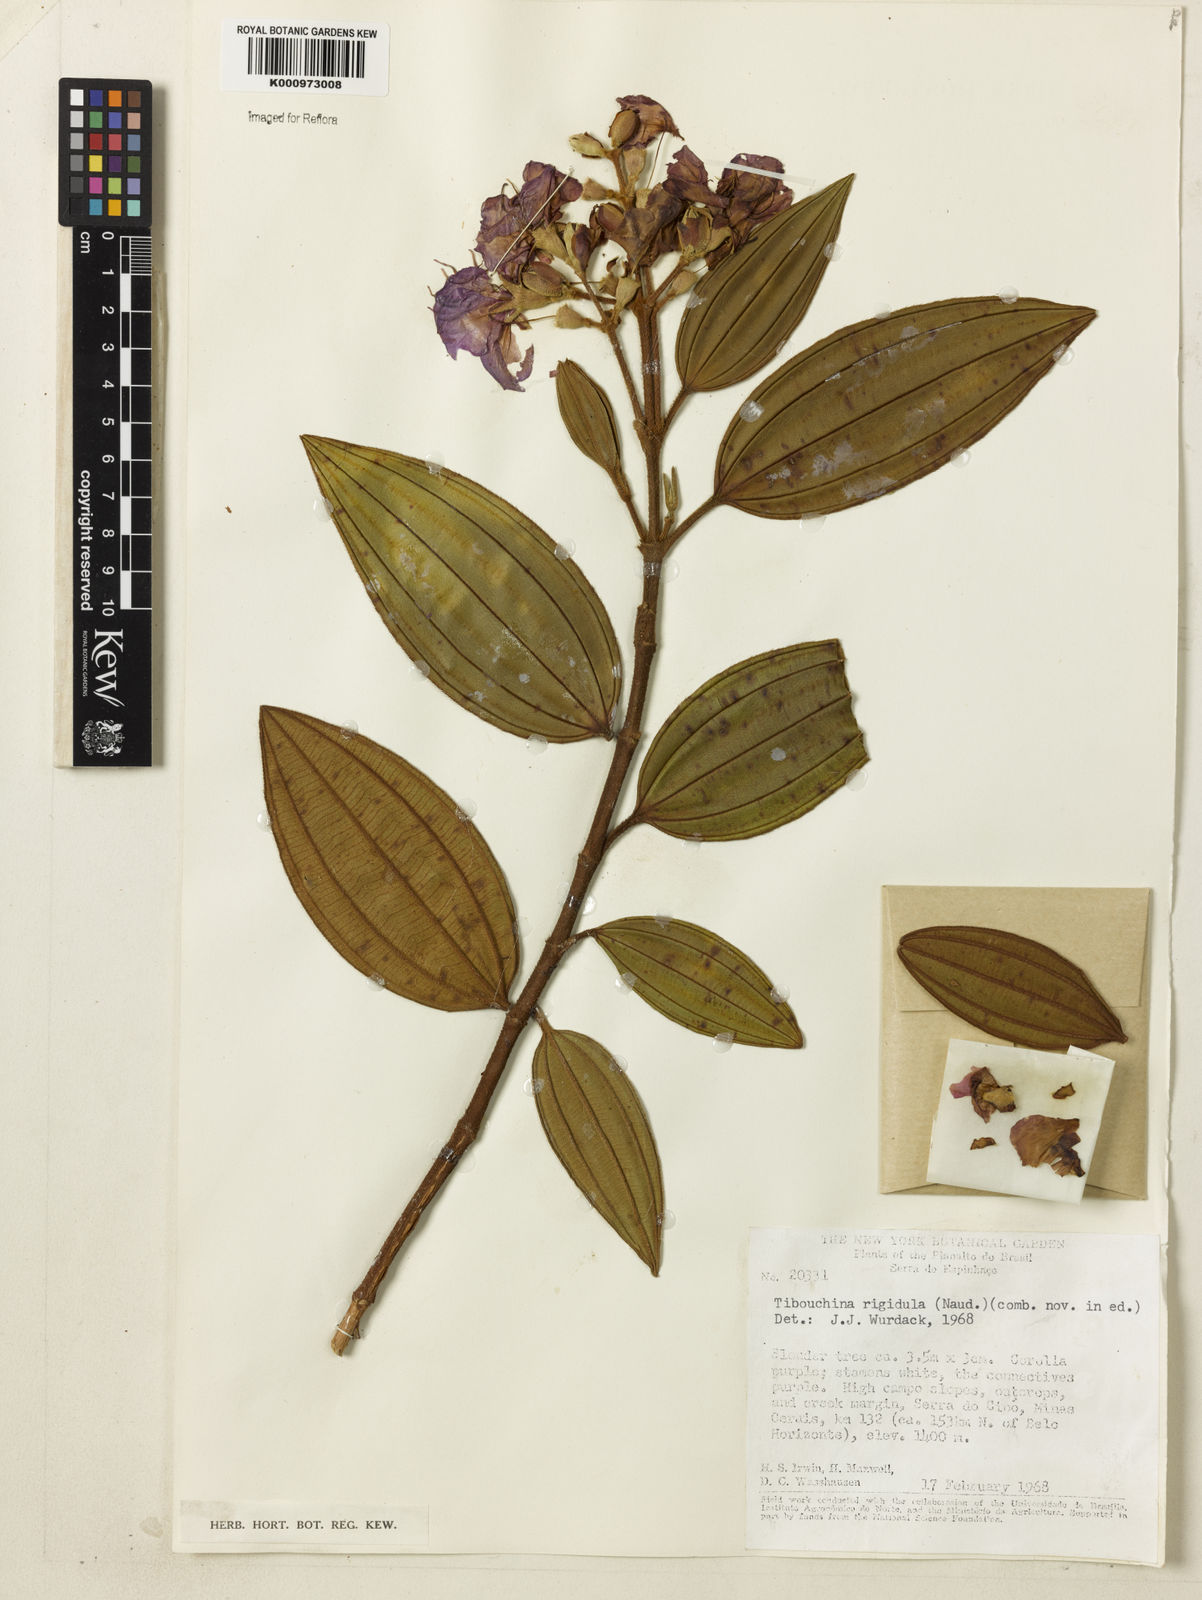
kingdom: Plantae
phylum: Tracheophyta
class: Magnoliopsida
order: Myrtales
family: Melastomataceae
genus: Pleroma
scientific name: Pleroma rigidulum
